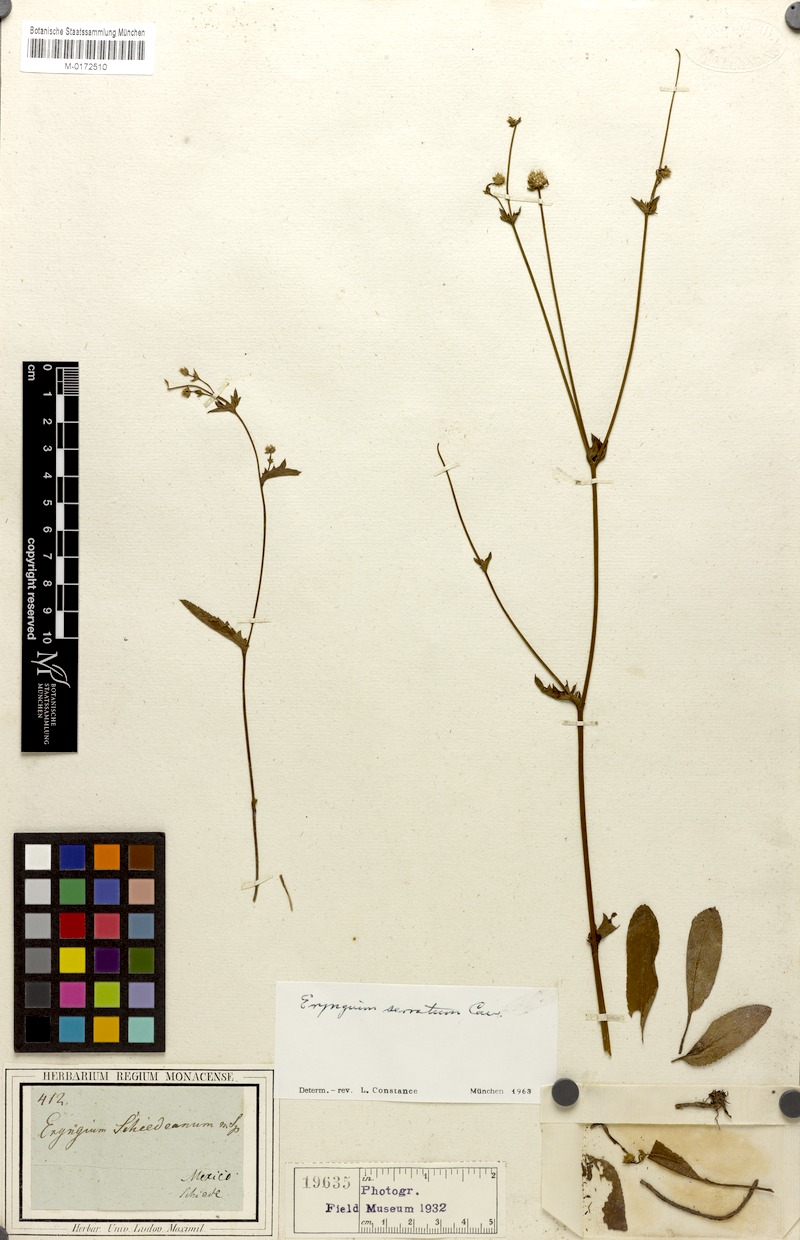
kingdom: Plantae
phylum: Tracheophyta
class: Magnoliopsida
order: Apiales
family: Apiaceae
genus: Eryngium
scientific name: Eryngium serratum
